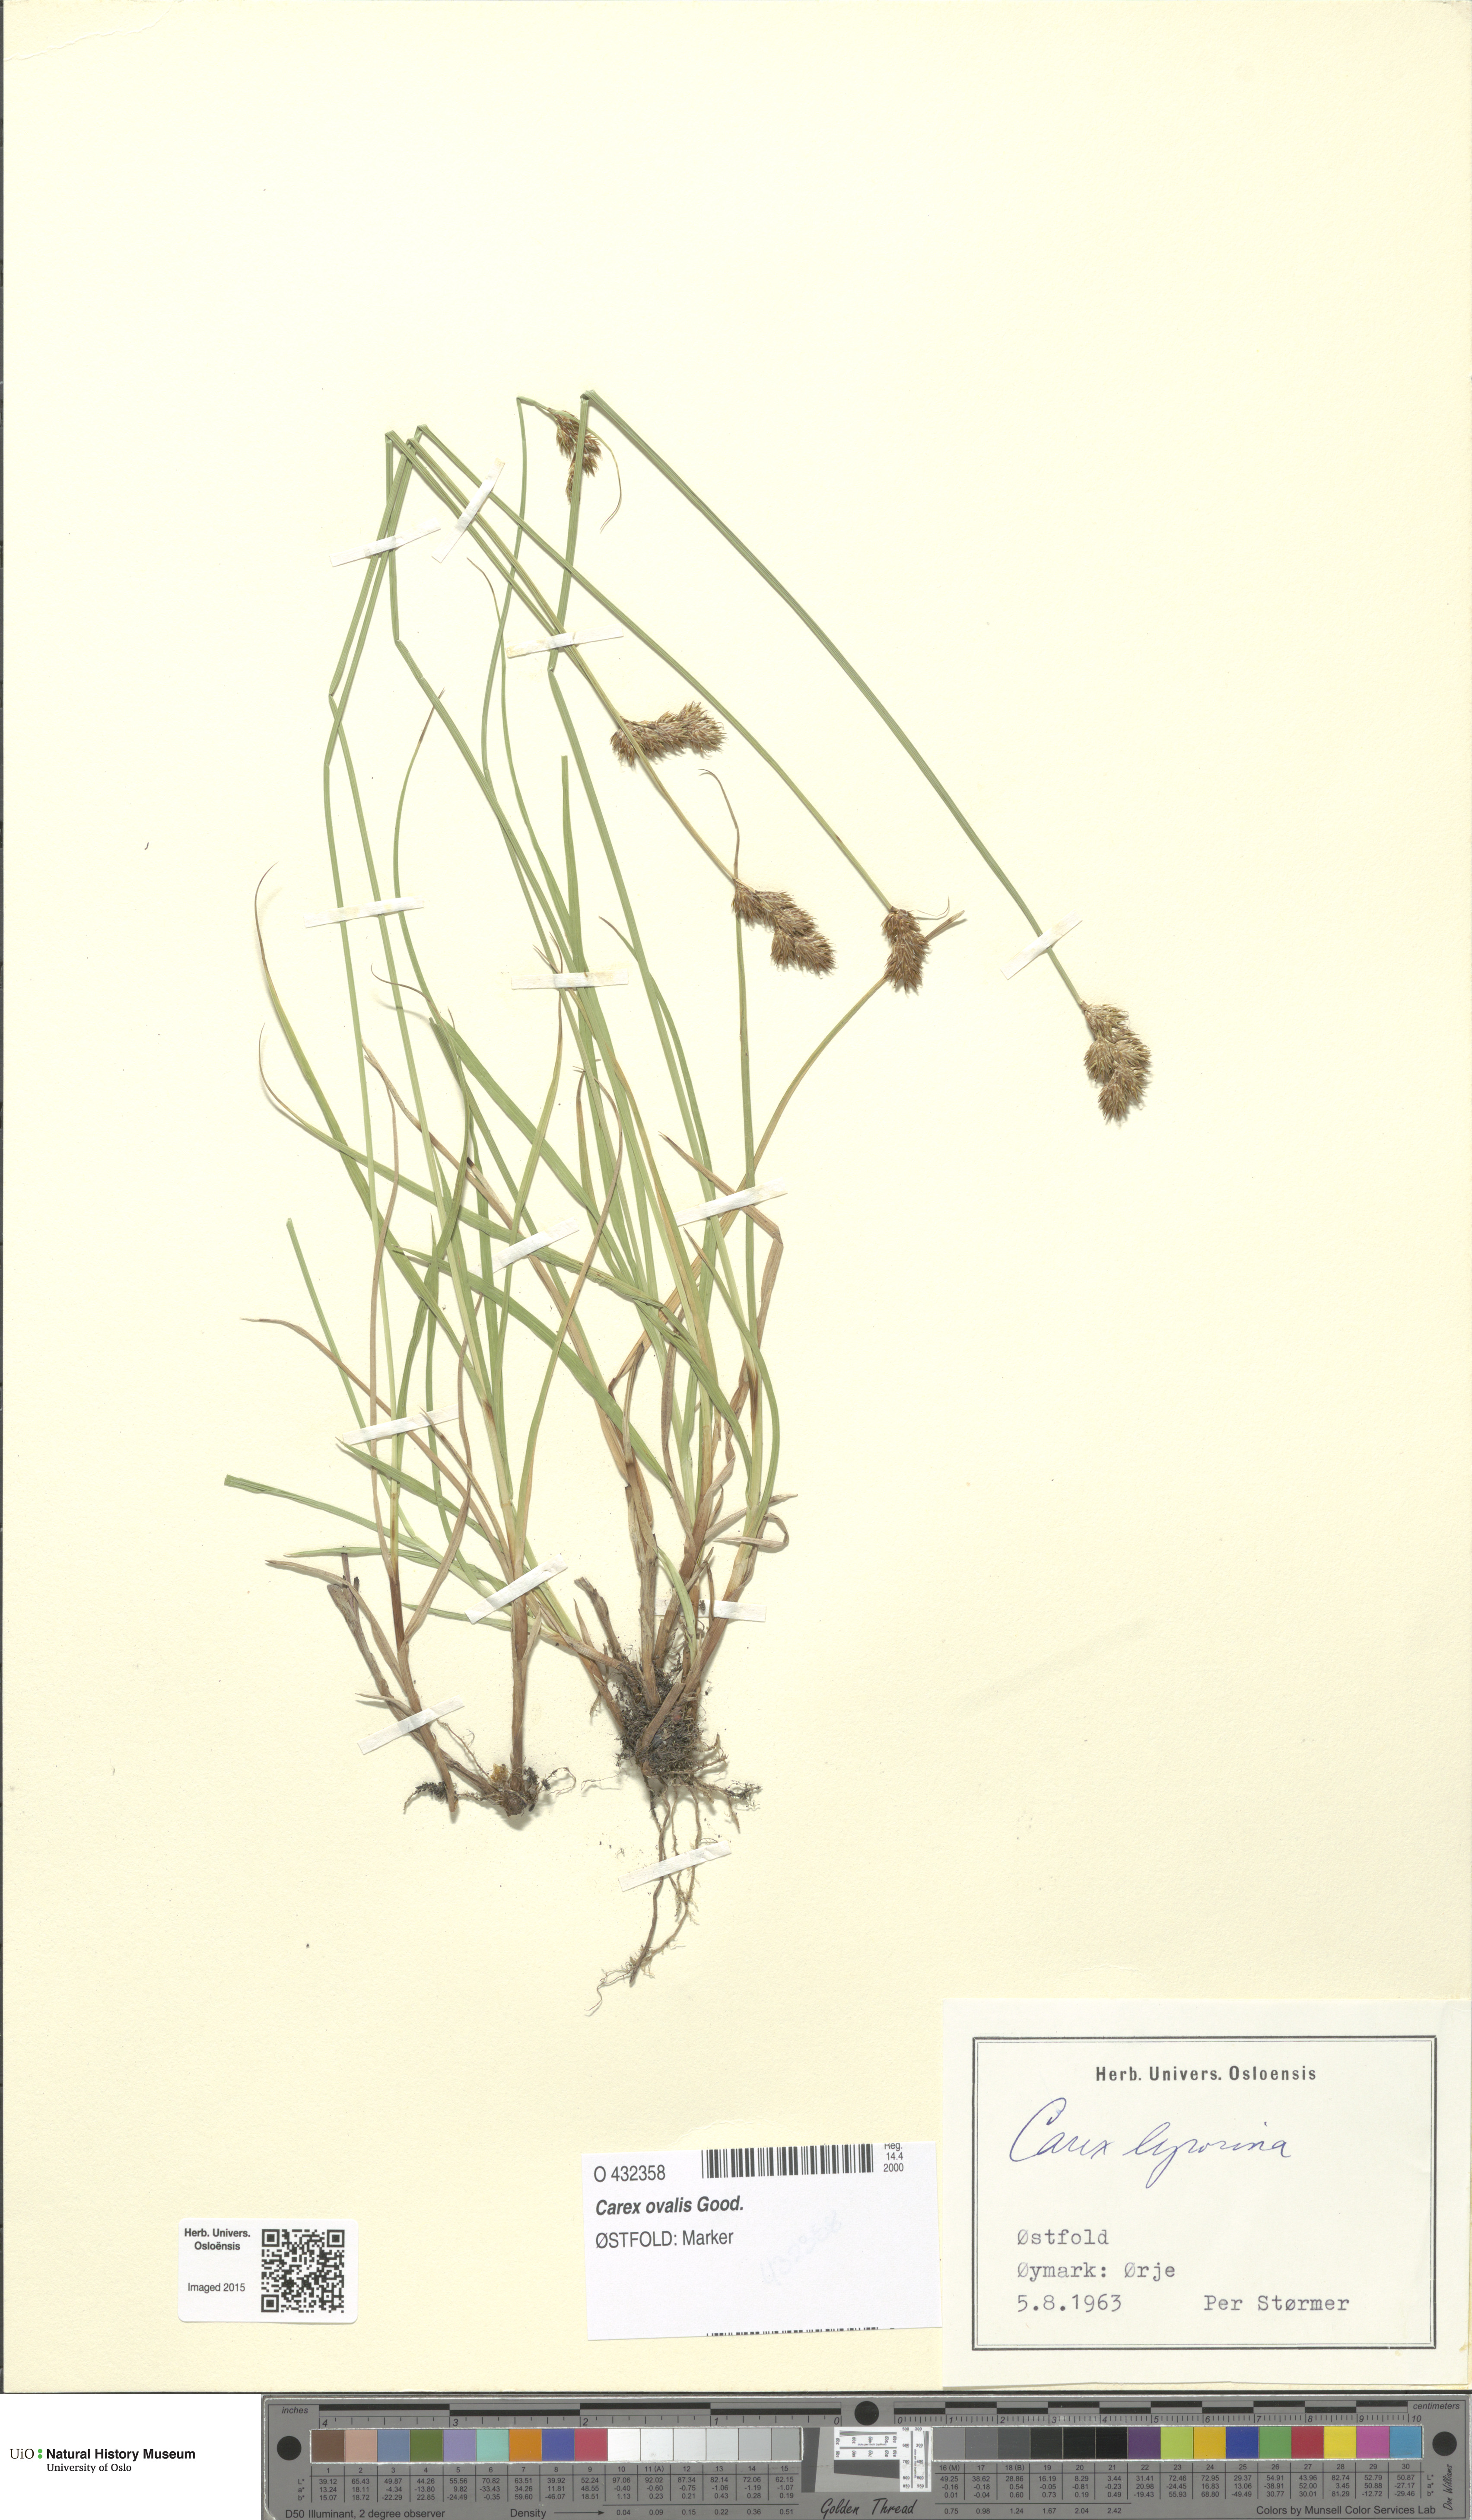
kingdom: Plantae
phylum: Tracheophyta
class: Liliopsida
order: Poales
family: Cyperaceae
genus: Carex
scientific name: Carex leporina
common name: Oval sedge
